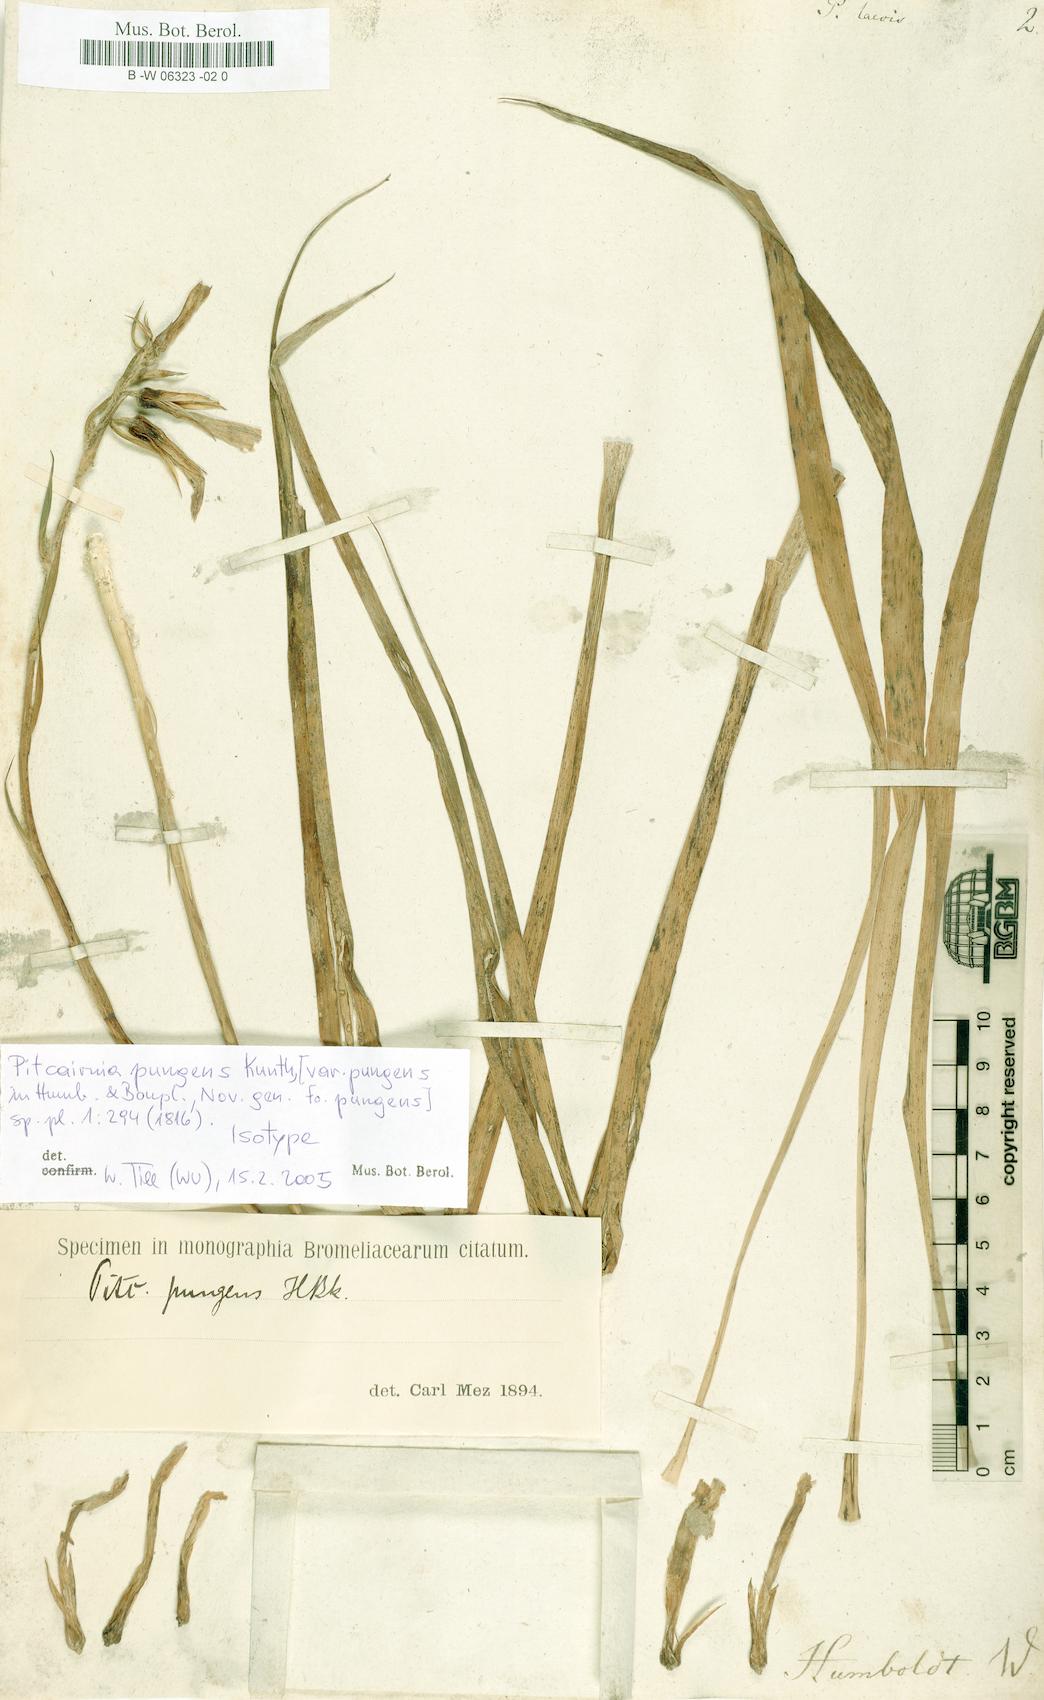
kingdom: Plantae
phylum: Tracheophyta
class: Liliopsida
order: Poales
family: Bromeliaceae
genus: Pitcairnia
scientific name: Pitcairnia pungens
